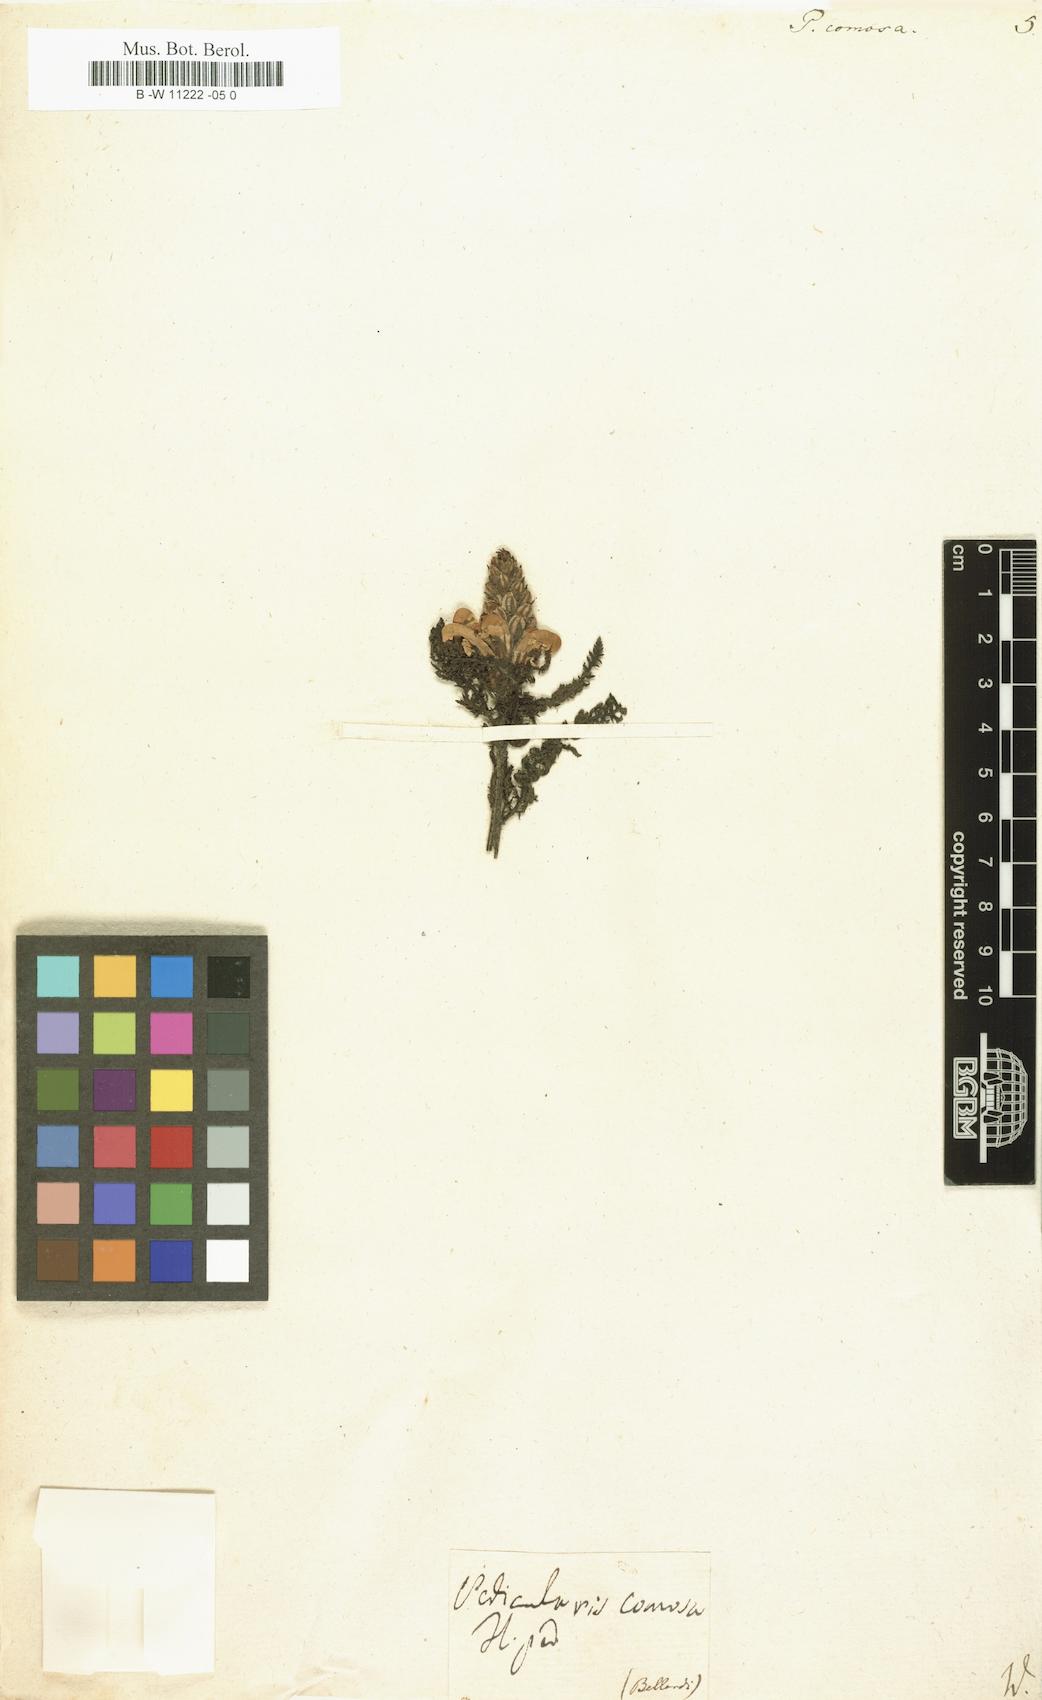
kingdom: Plantae
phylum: Tracheophyta
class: Magnoliopsida
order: Lamiales
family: Orobanchaceae
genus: Pedicularis
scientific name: Pedicularis comosa
